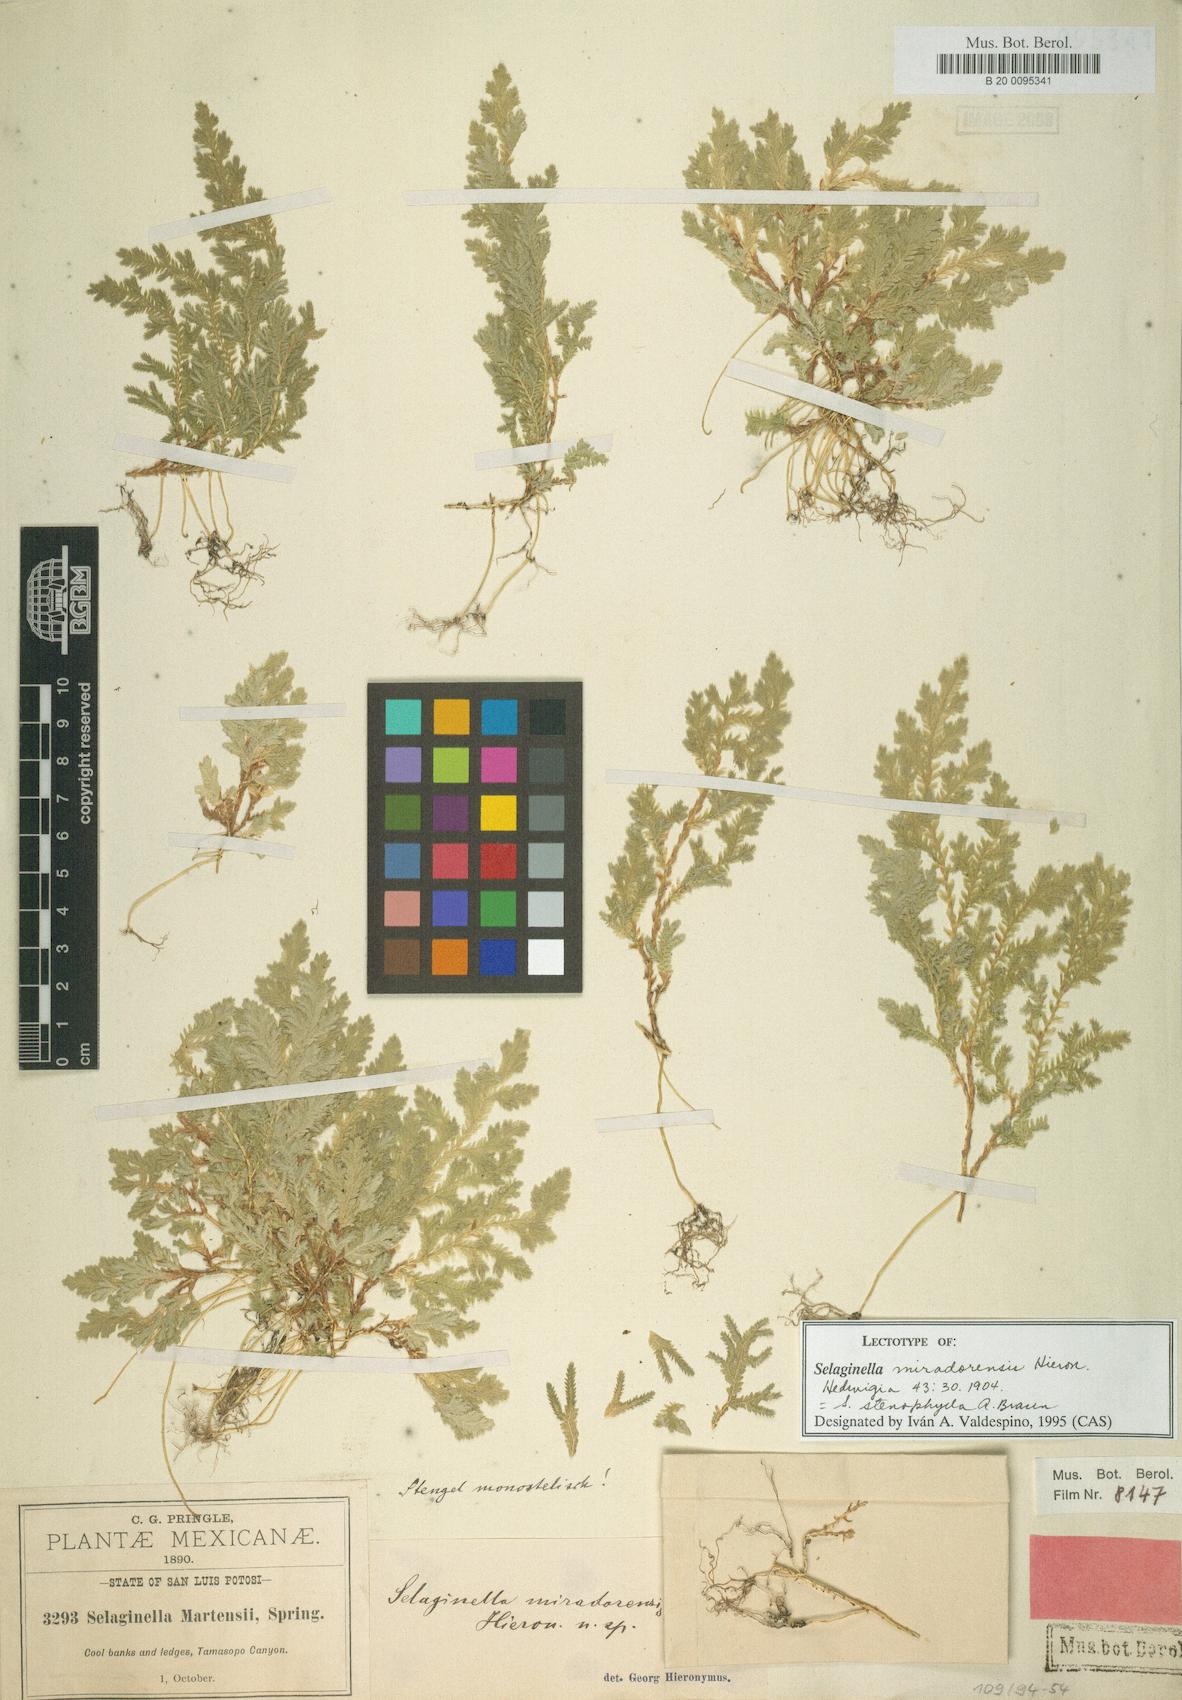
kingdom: Plantae
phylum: Tracheophyta
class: Lycopodiopsida
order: Selaginellales
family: Selaginellaceae
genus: Selaginella
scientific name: Selaginella stenophylla
